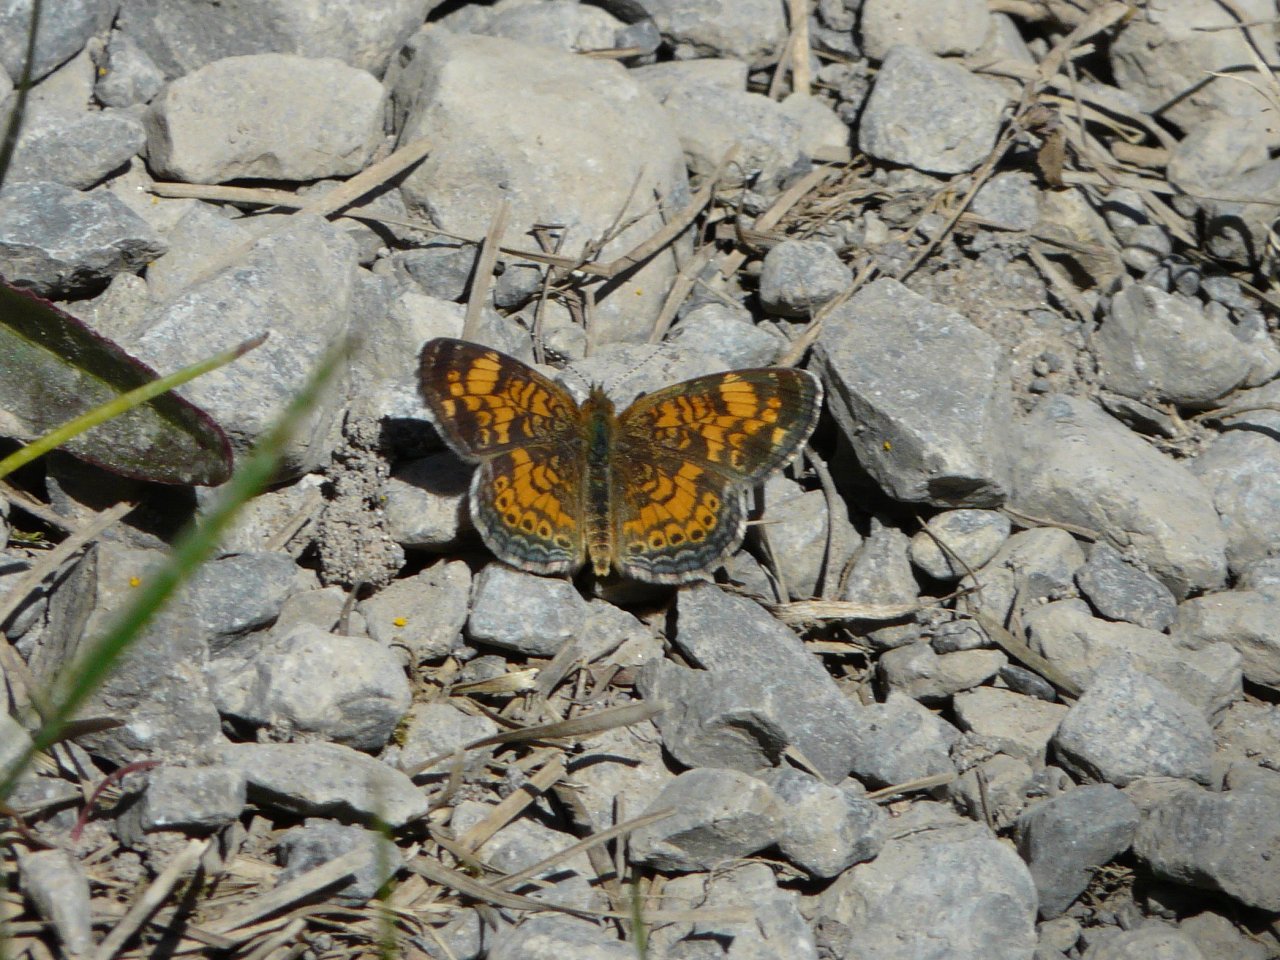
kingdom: Animalia
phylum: Arthropoda
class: Insecta
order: Lepidoptera
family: Nymphalidae
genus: Phyciodes
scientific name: Phyciodes tharos
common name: Pearl Crescent
